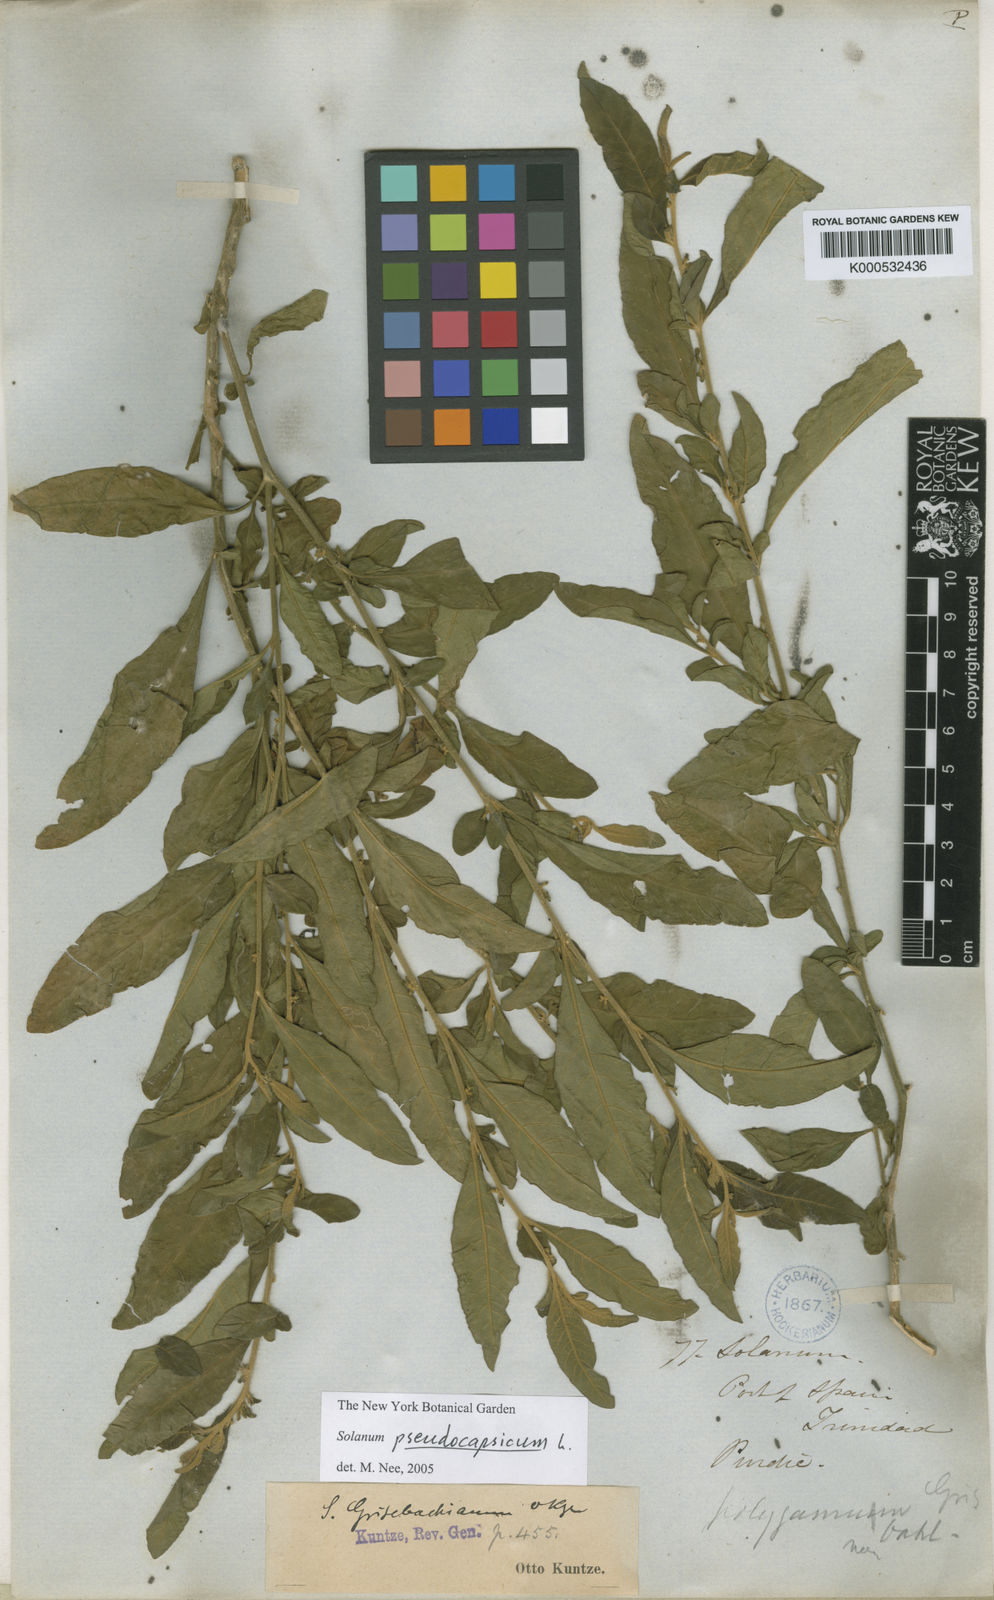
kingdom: Plantae
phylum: Tracheophyta
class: Magnoliopsida
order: Solanales
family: Solanaceae
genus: Solanum
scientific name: Solanum pseudocapsicum
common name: Jerusalem cherry
